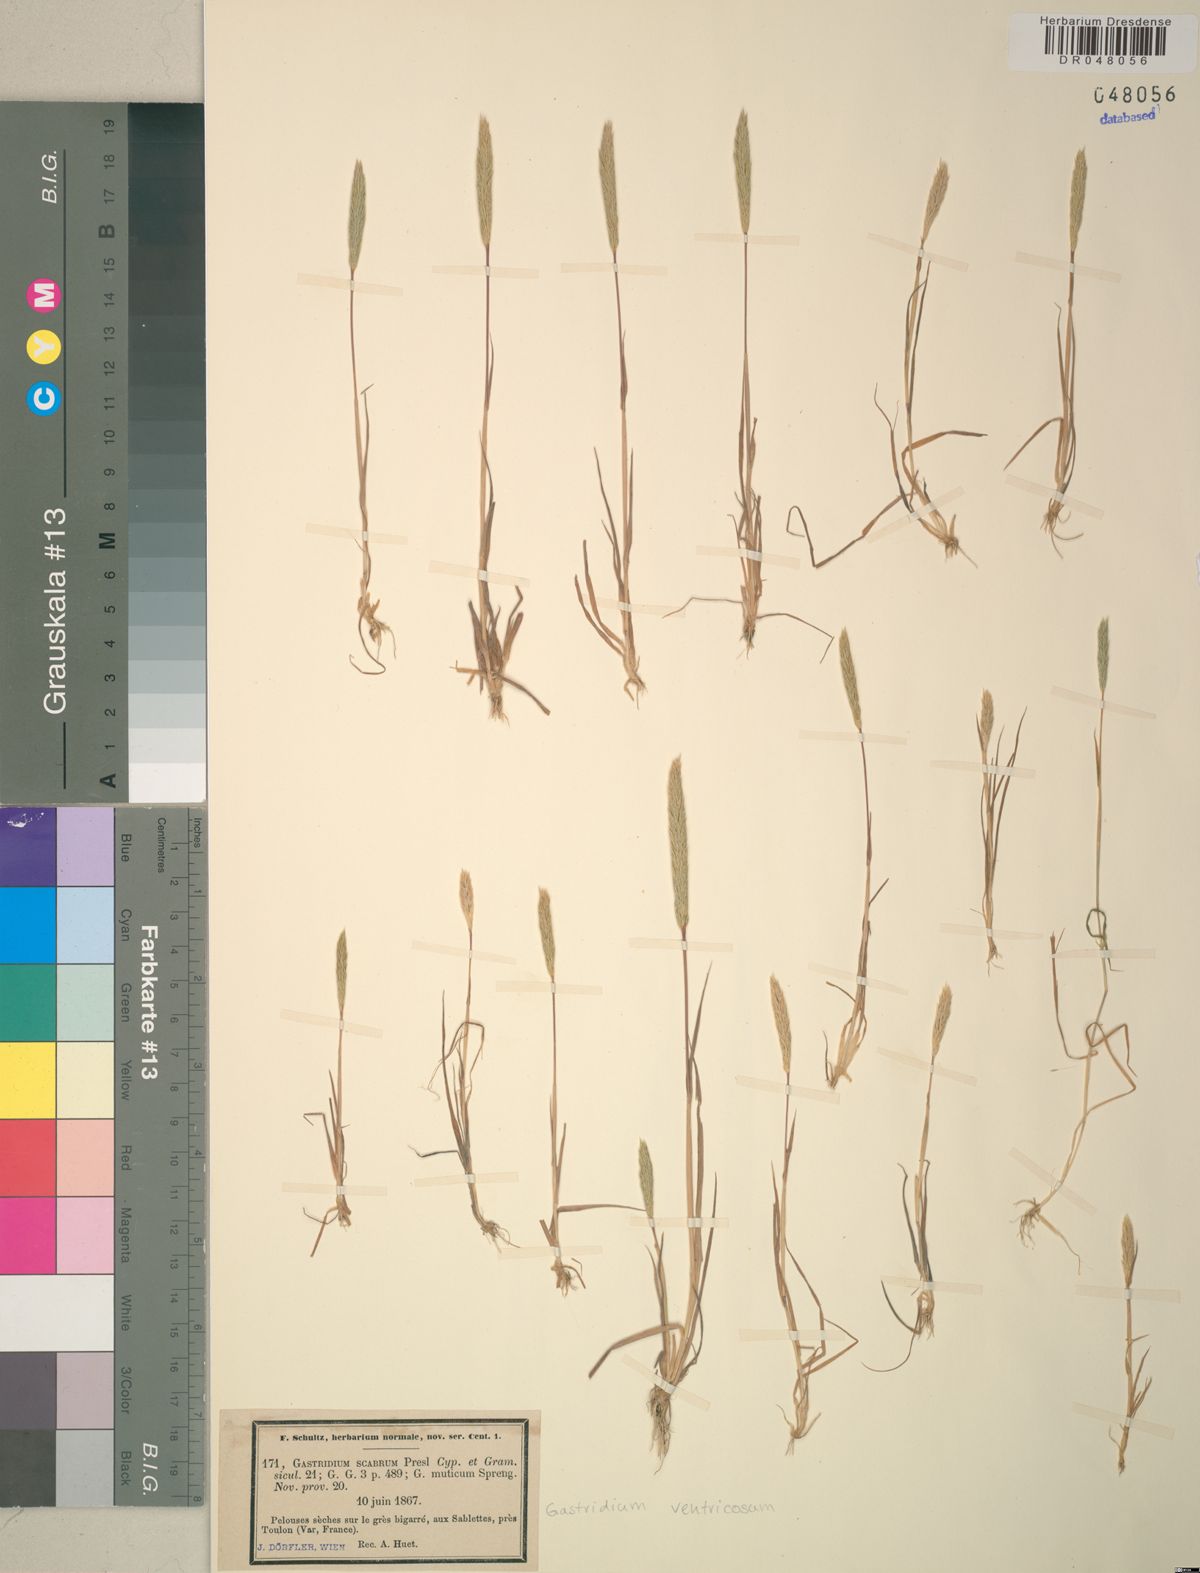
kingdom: Plantae
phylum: Tracheophyta
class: Liliopsida
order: Poales
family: Poaceae
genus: Gastridium
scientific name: Gastridium ventricosum
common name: Nit-grass
